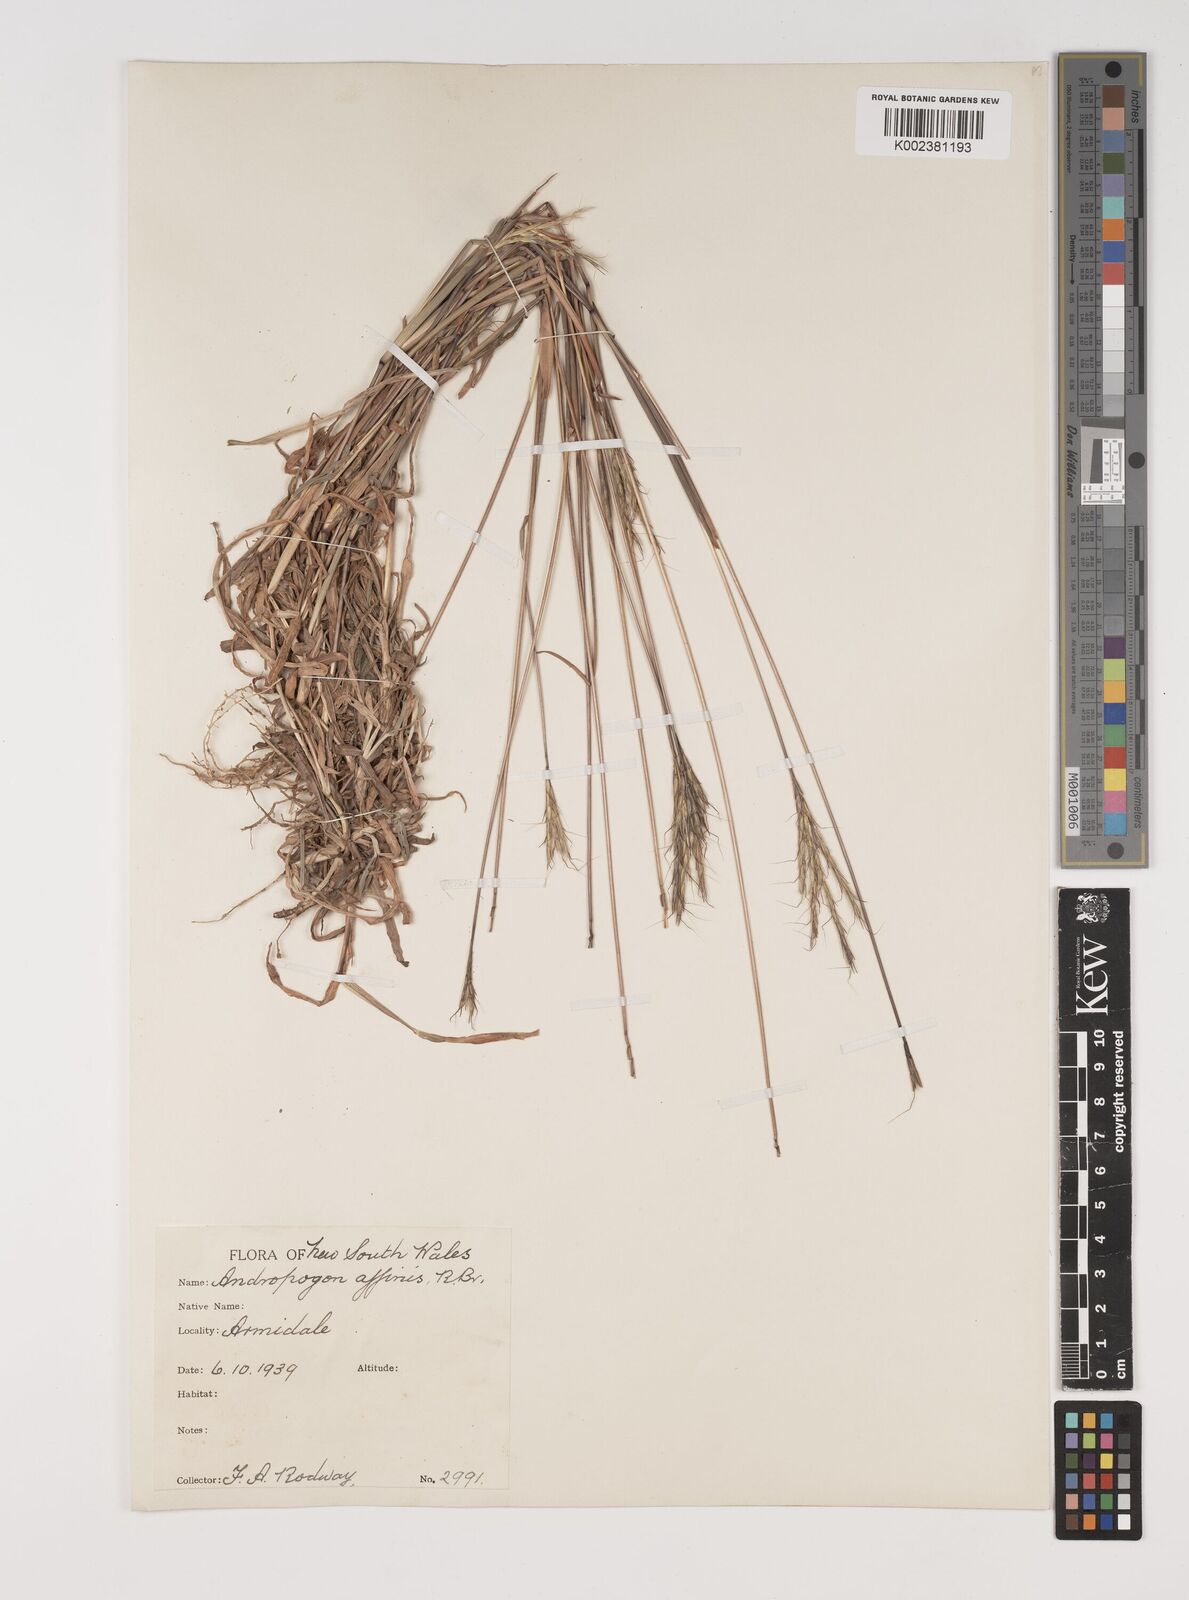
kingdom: Plantae
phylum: Tracheophyta
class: Liliopsida
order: Poales
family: Poaceae
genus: Bothriochloa
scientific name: Bothriochloa macra
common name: Pitted beard grass
